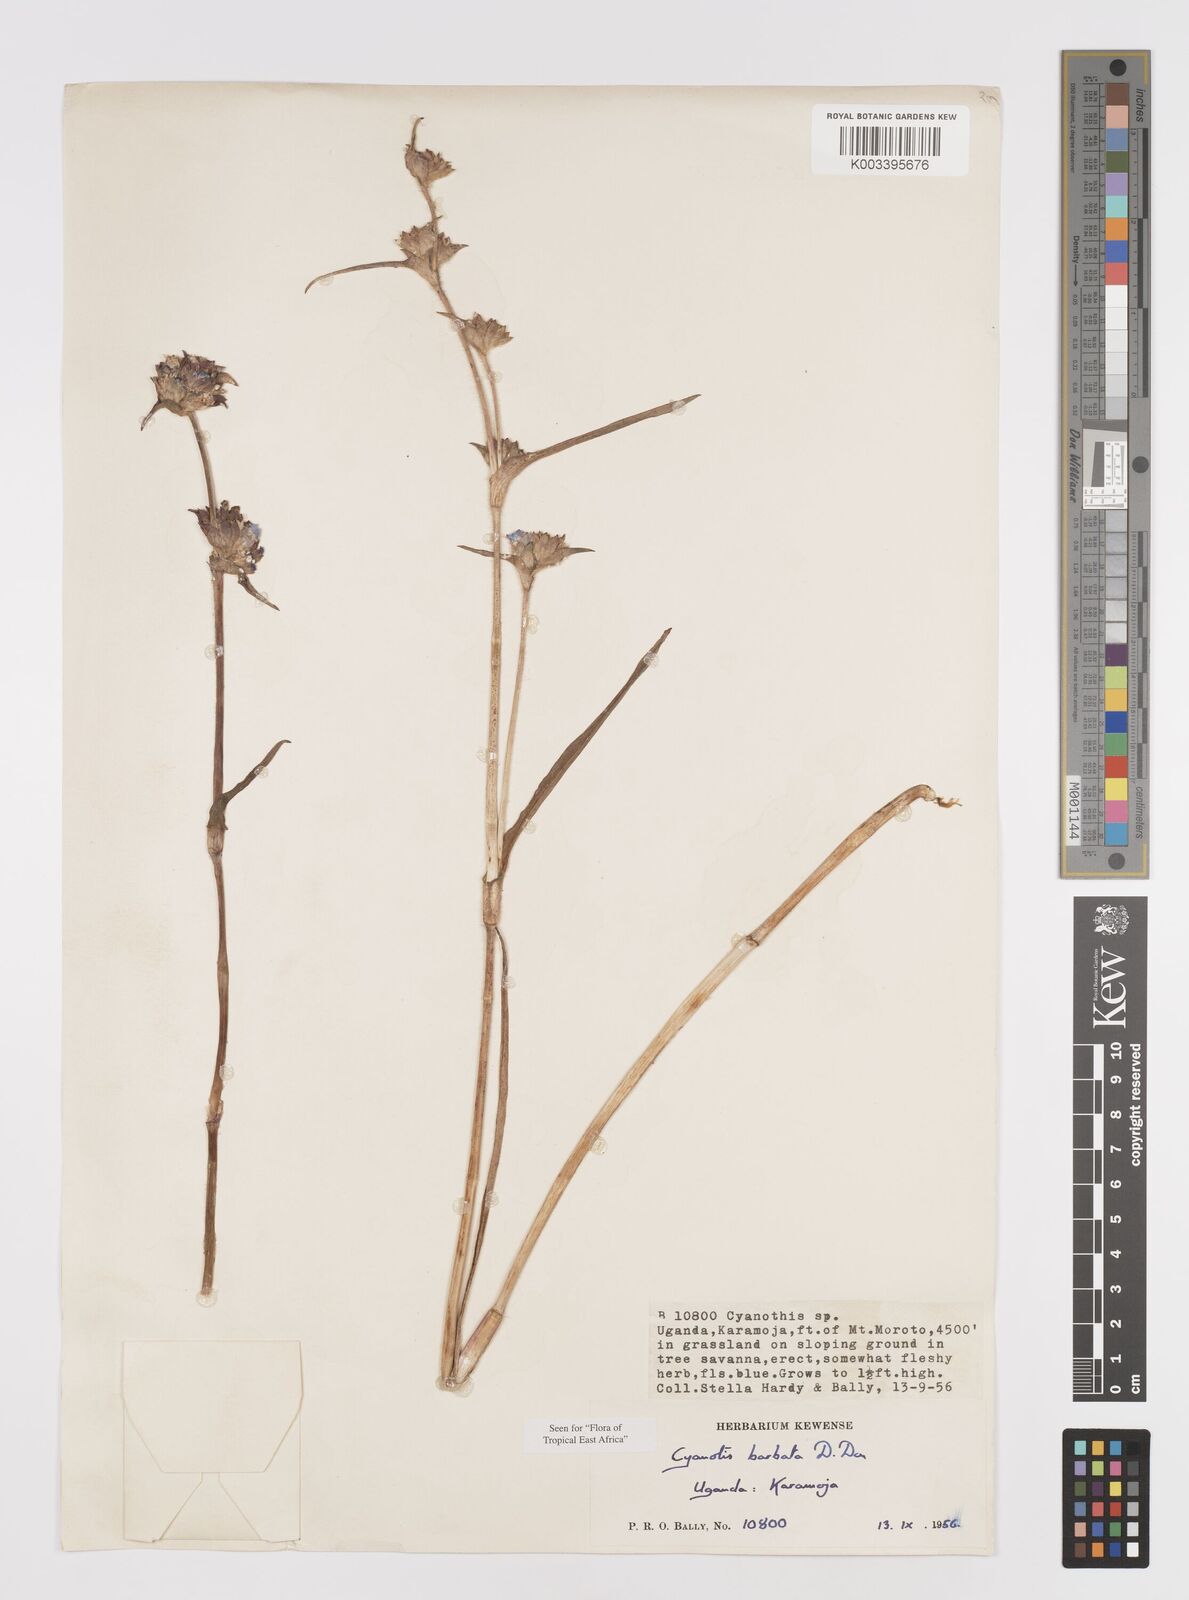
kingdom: Plantae
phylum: Tracheophyta
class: Liliopsida
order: Commelinales
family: Commelinaceae
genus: Cyanotis
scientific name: Cyanotis vaga
